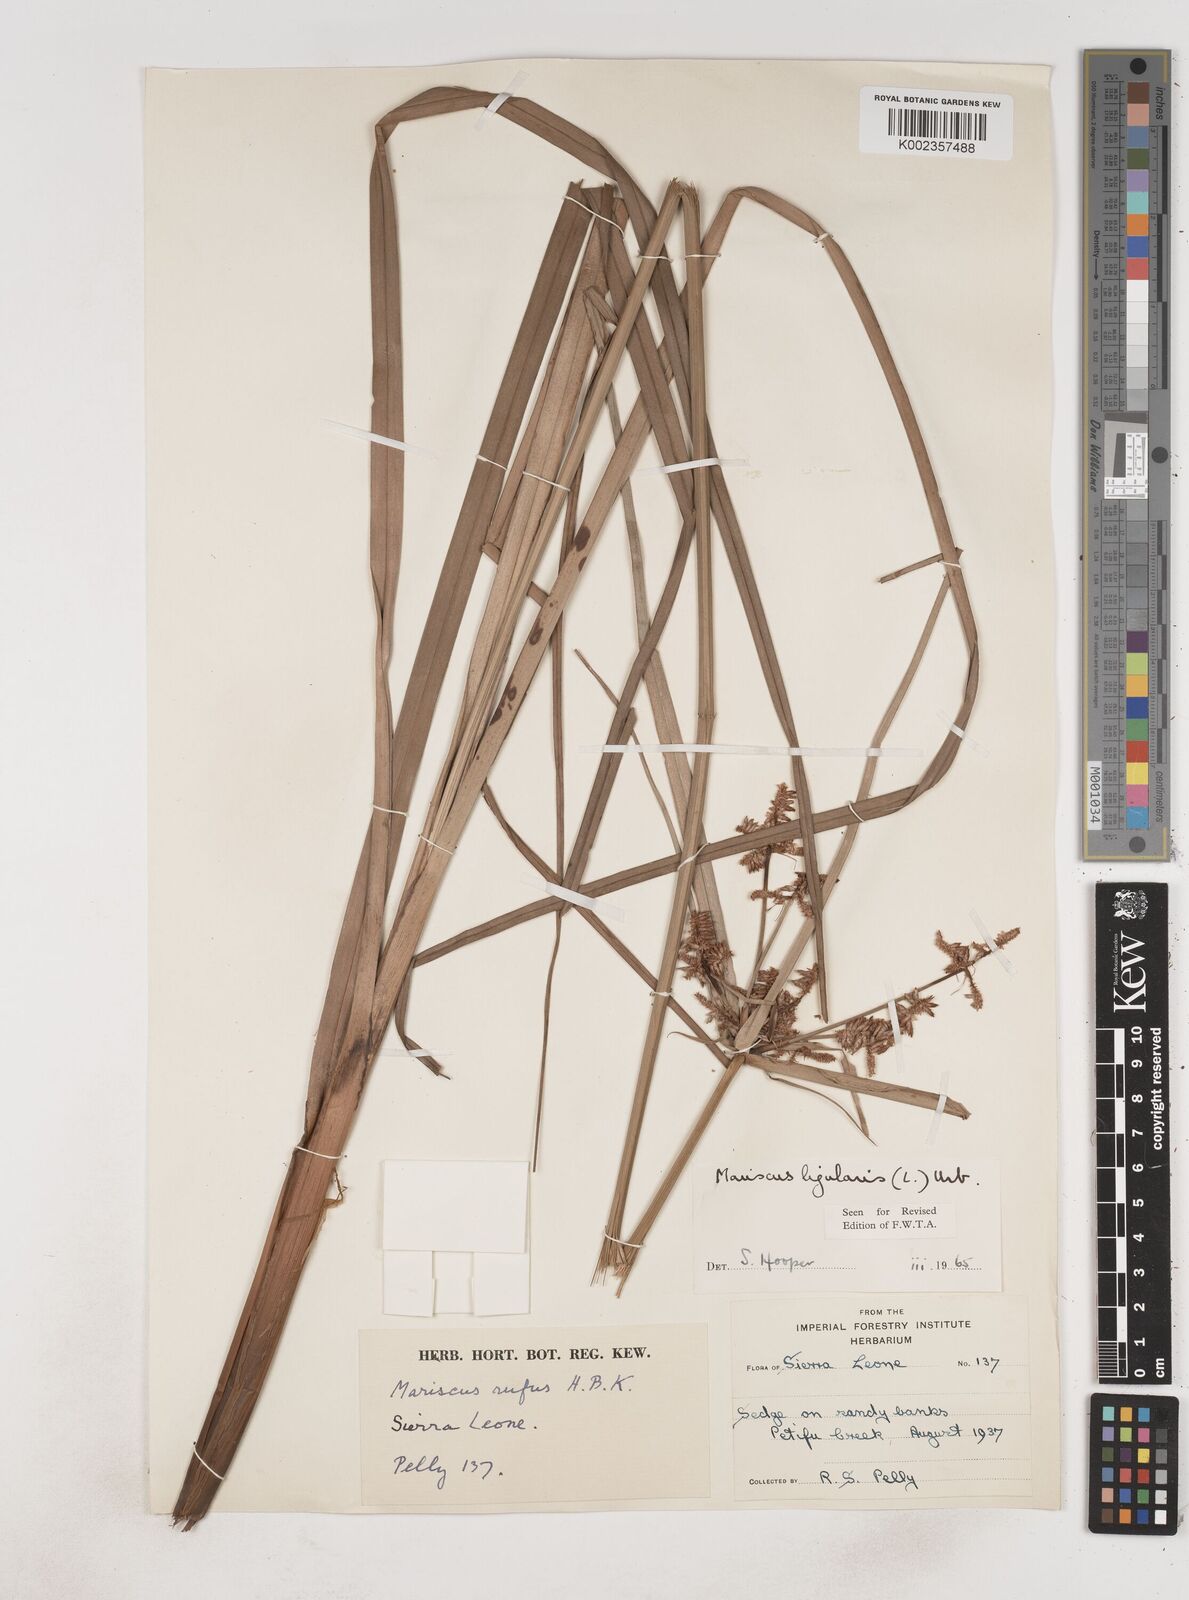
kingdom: Plantae
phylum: Tracheophyta
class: Liliopsida
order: Poales
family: Cyperaceae
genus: Cyperus
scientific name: Cyperus ligularis
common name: Swamp flat sedge
